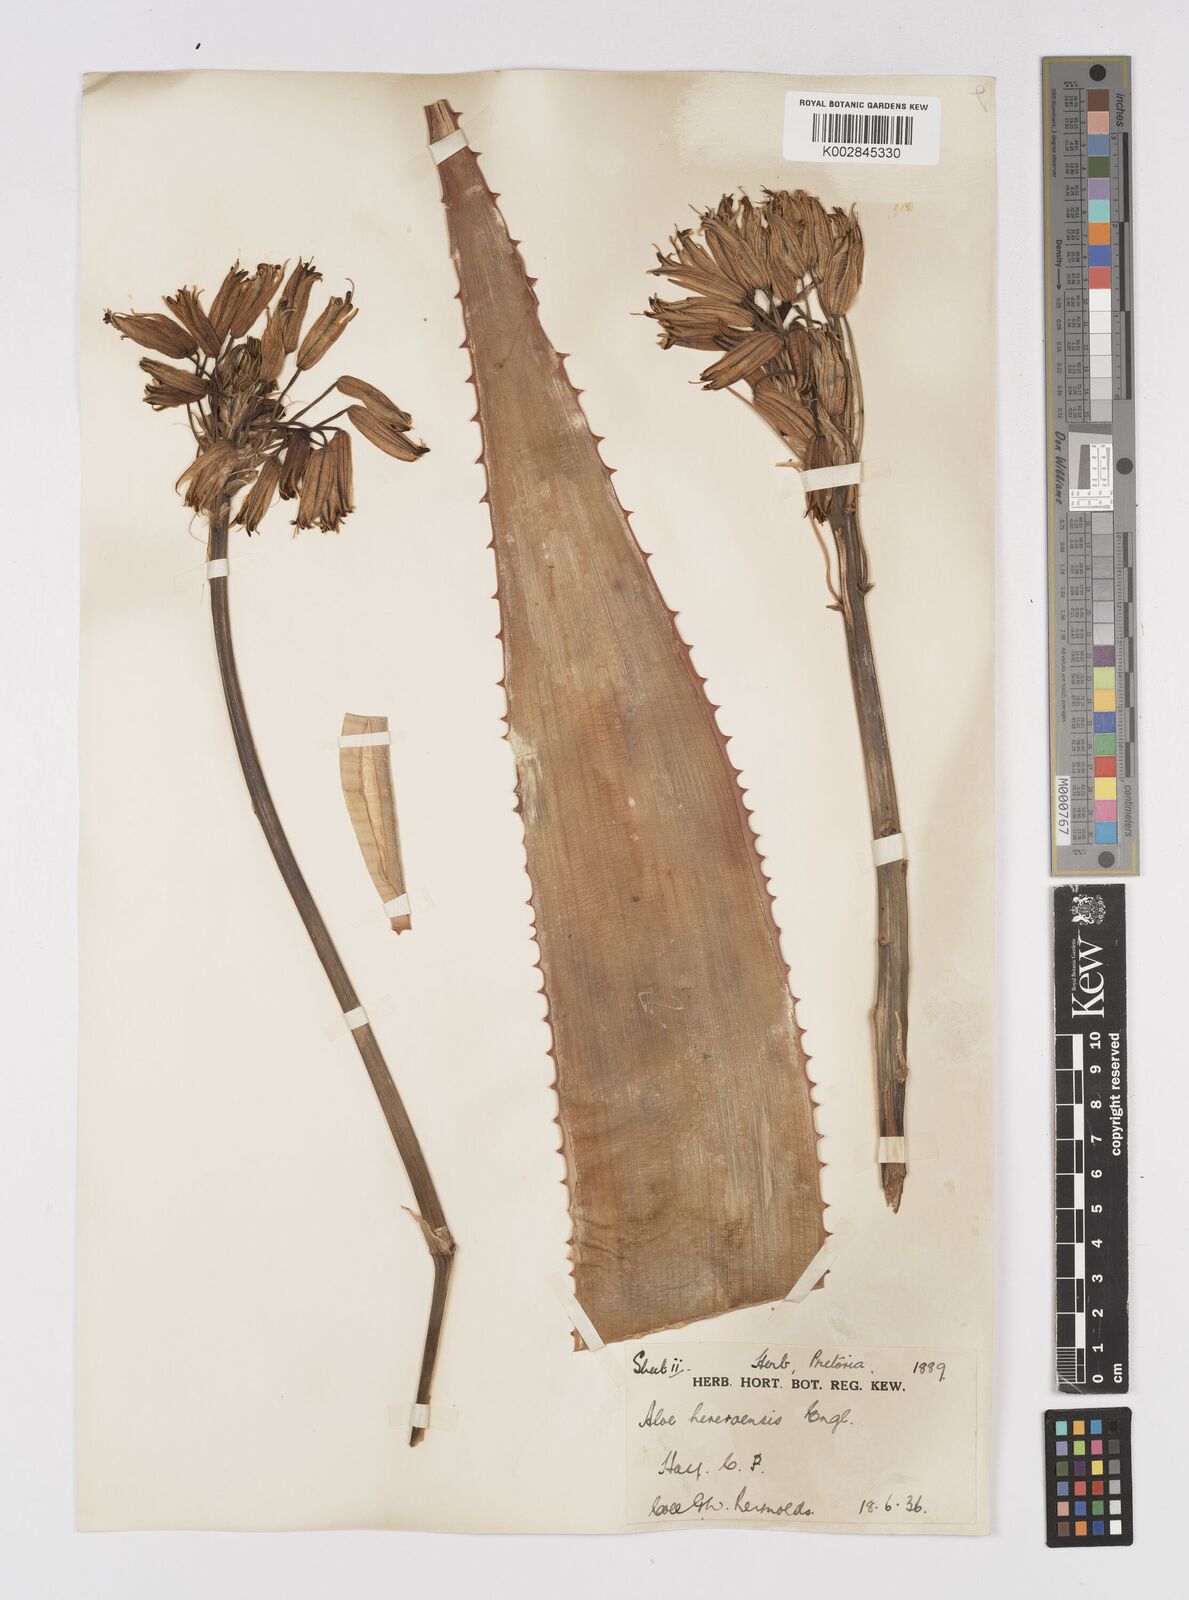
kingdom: Plantae
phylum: Tracheophyta
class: Liliopsida
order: Asparagales
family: Asphodelaceae
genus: Aloe
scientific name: Aloe hereroensis
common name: Herero aloe
